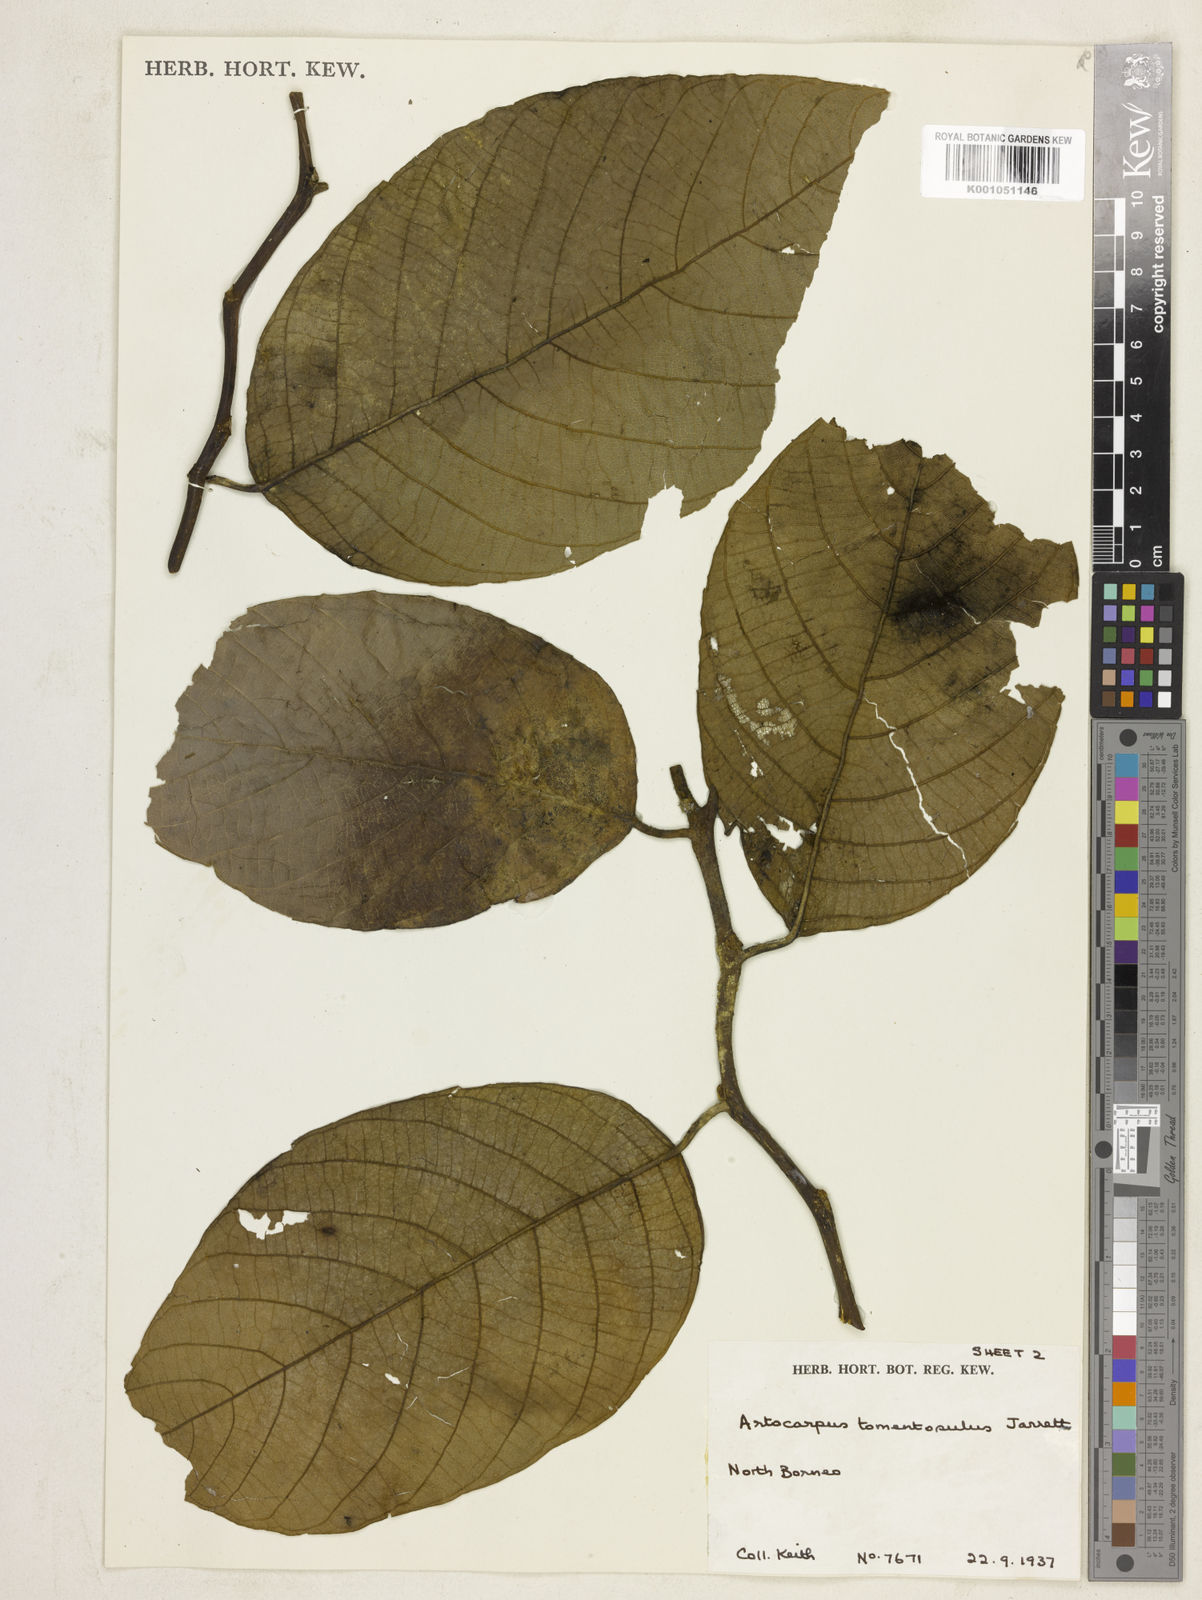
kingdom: Plantae
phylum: Tracheophyta
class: Magnoliopsida
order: Rosales
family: Moraceae
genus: Artocarpus
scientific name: Artocarpus tomentosulus
